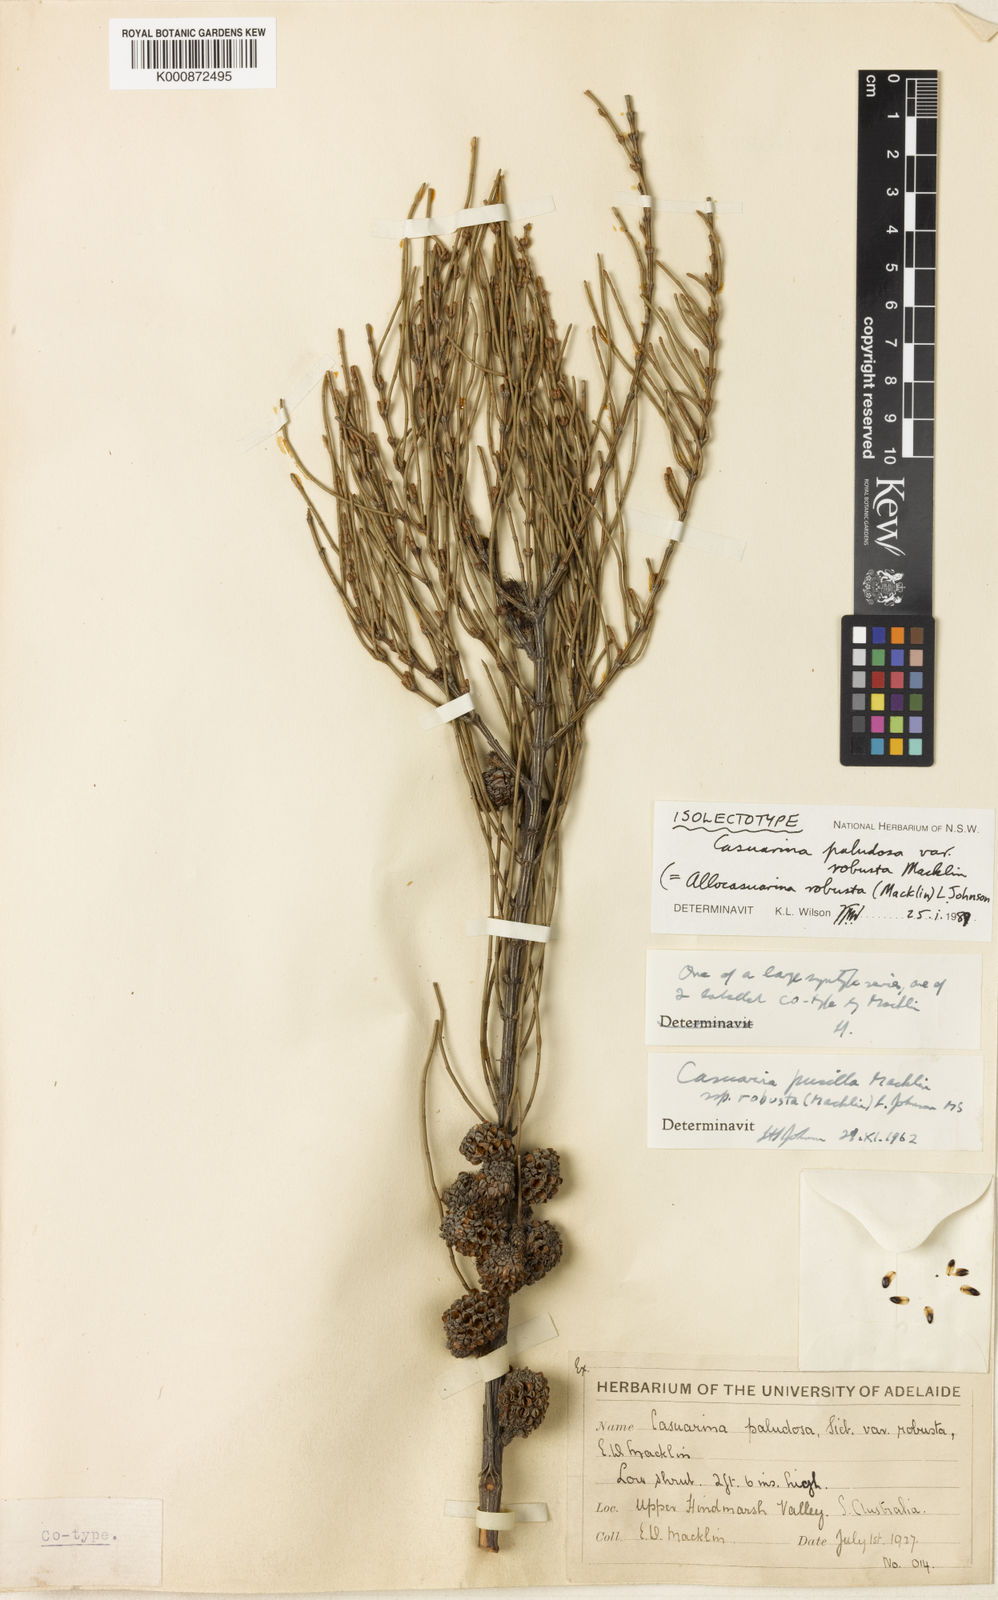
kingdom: Plantae
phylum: Tracheophyta
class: Magnoliopsida
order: Fagales
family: Casuarinaceae
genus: Allocasuarina
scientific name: Allocasuarina robusta
